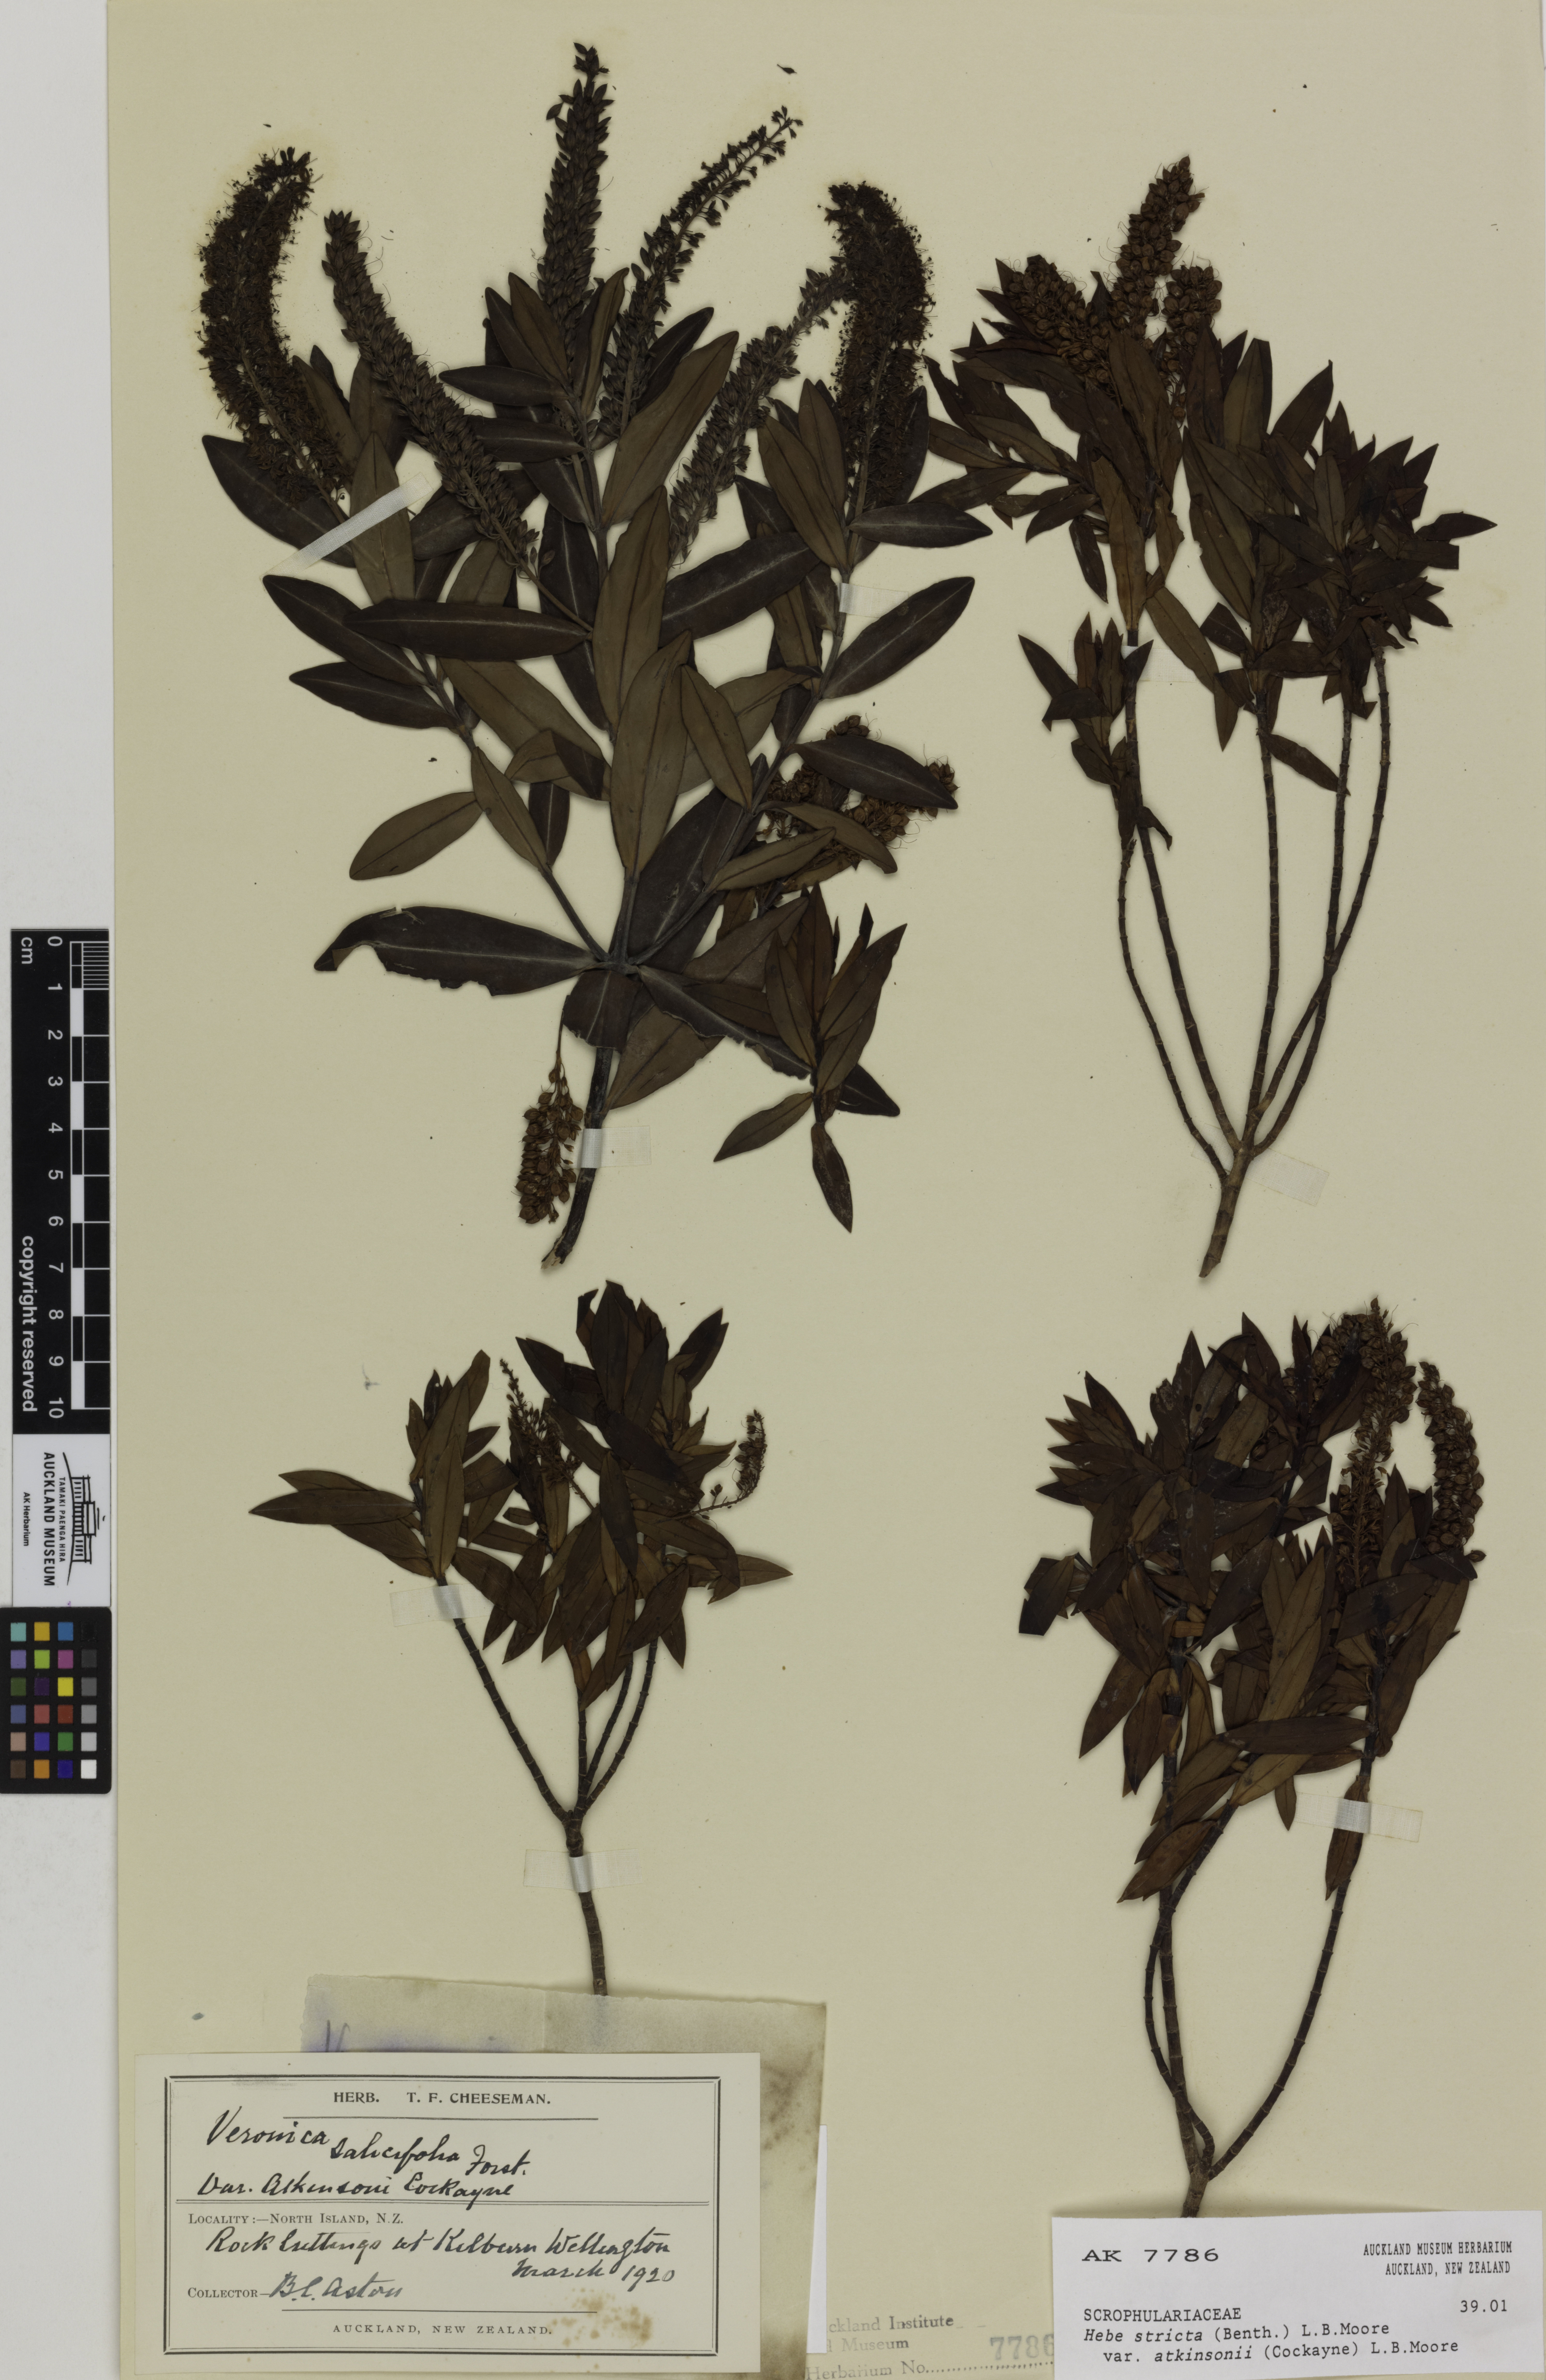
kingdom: Plantae
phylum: Tracheophyta
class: Magnoliopsida
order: Lamiales
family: Plantaginaceae
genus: Veronica
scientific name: Veronica stricta
